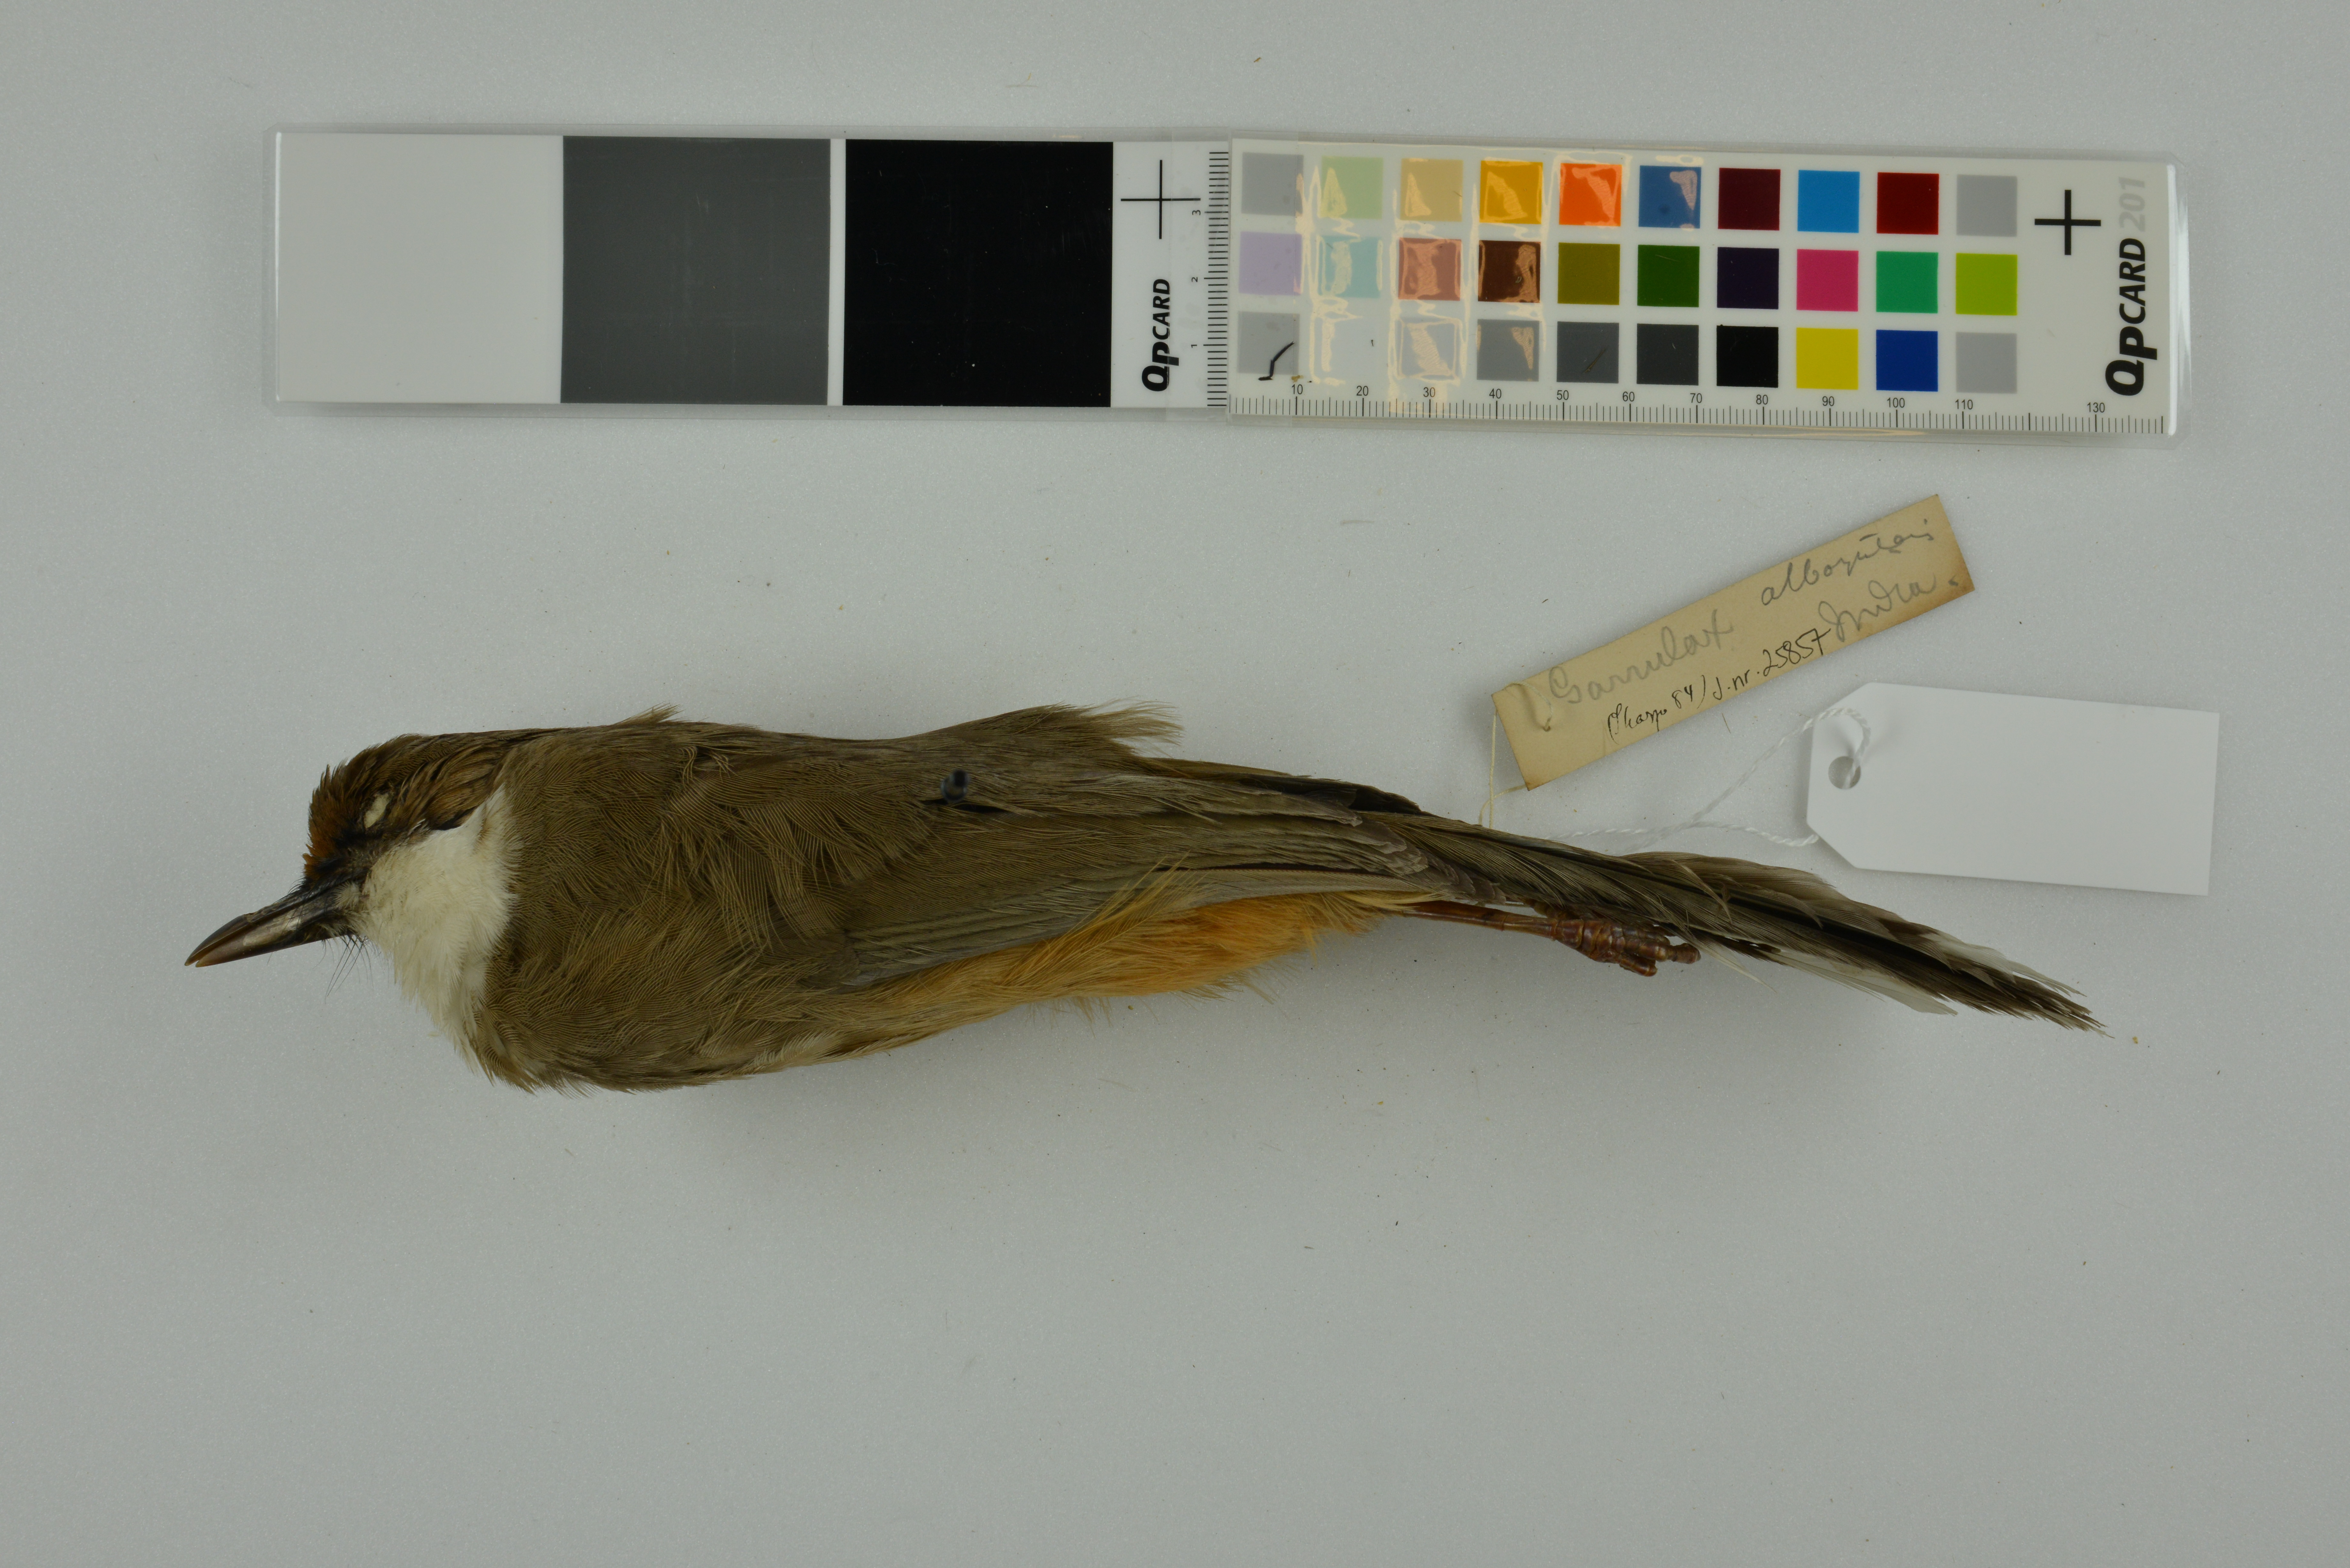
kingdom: Animalia
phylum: Chordata
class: Aves
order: Passeriformes
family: Leiothrichidae
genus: Garrulax
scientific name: Garrulax albogularis
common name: White-throated laughingthrush
